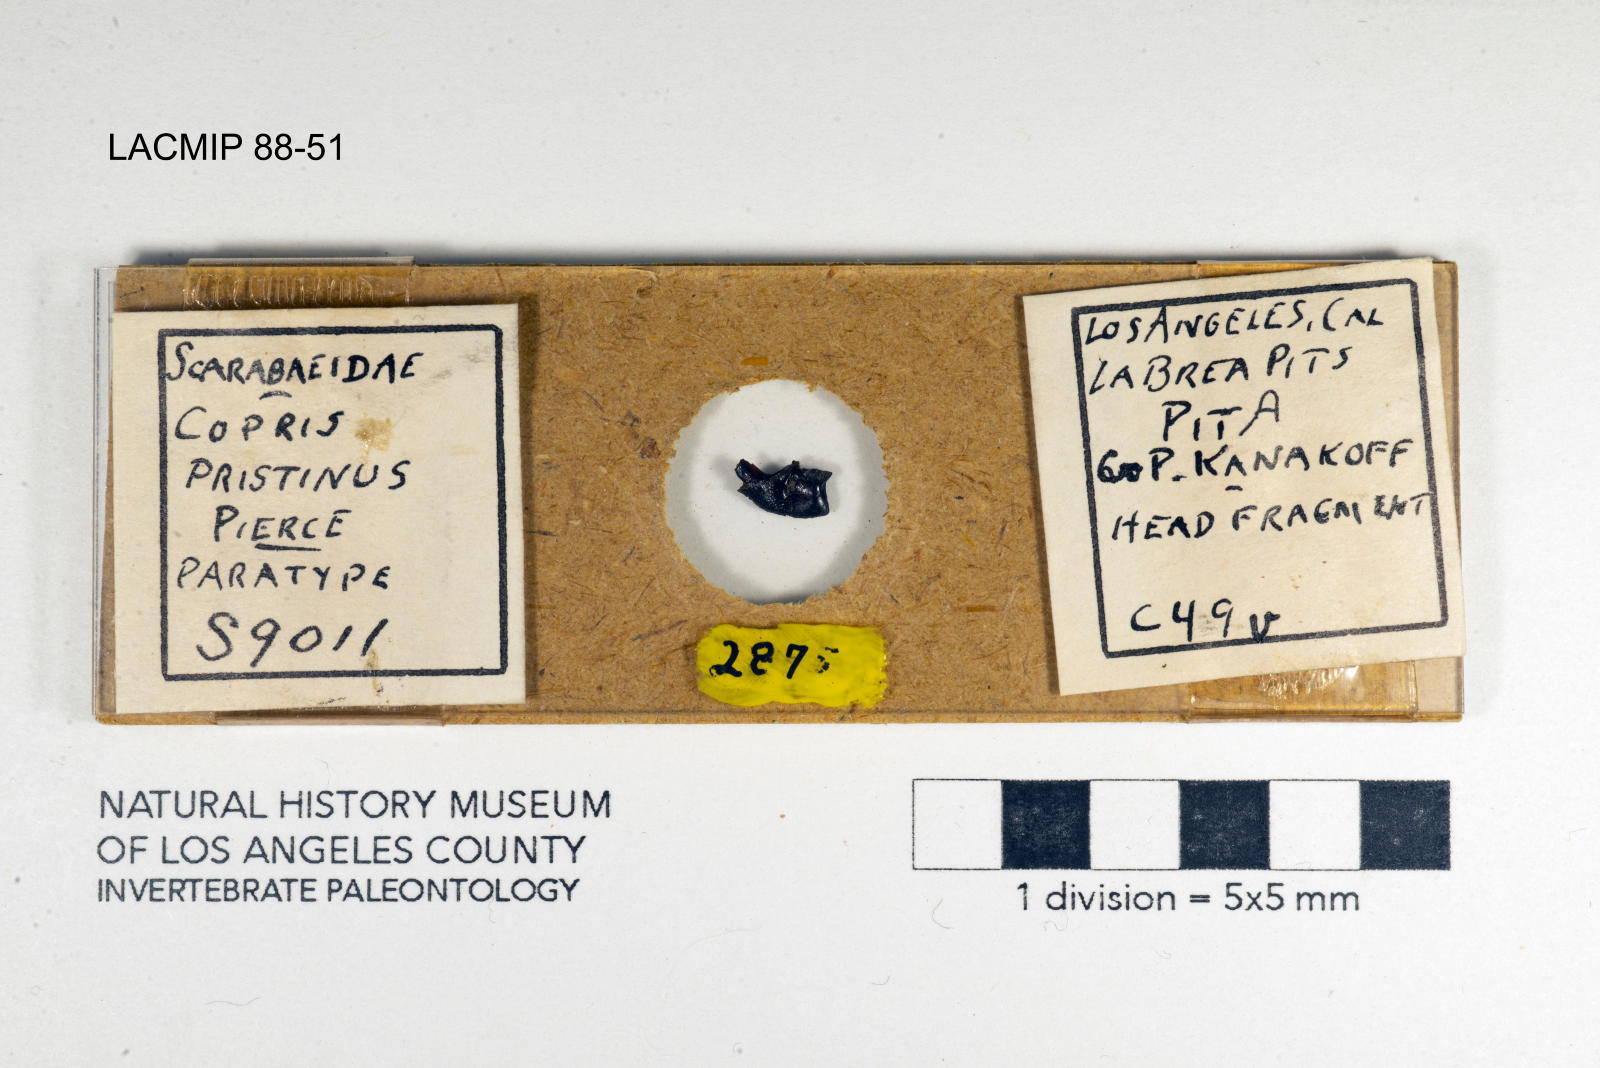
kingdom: Animalia
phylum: Arthropoda
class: Insecta
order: Coleoptera
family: Scarabaeidae
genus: Copris
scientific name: Copris pristinus
